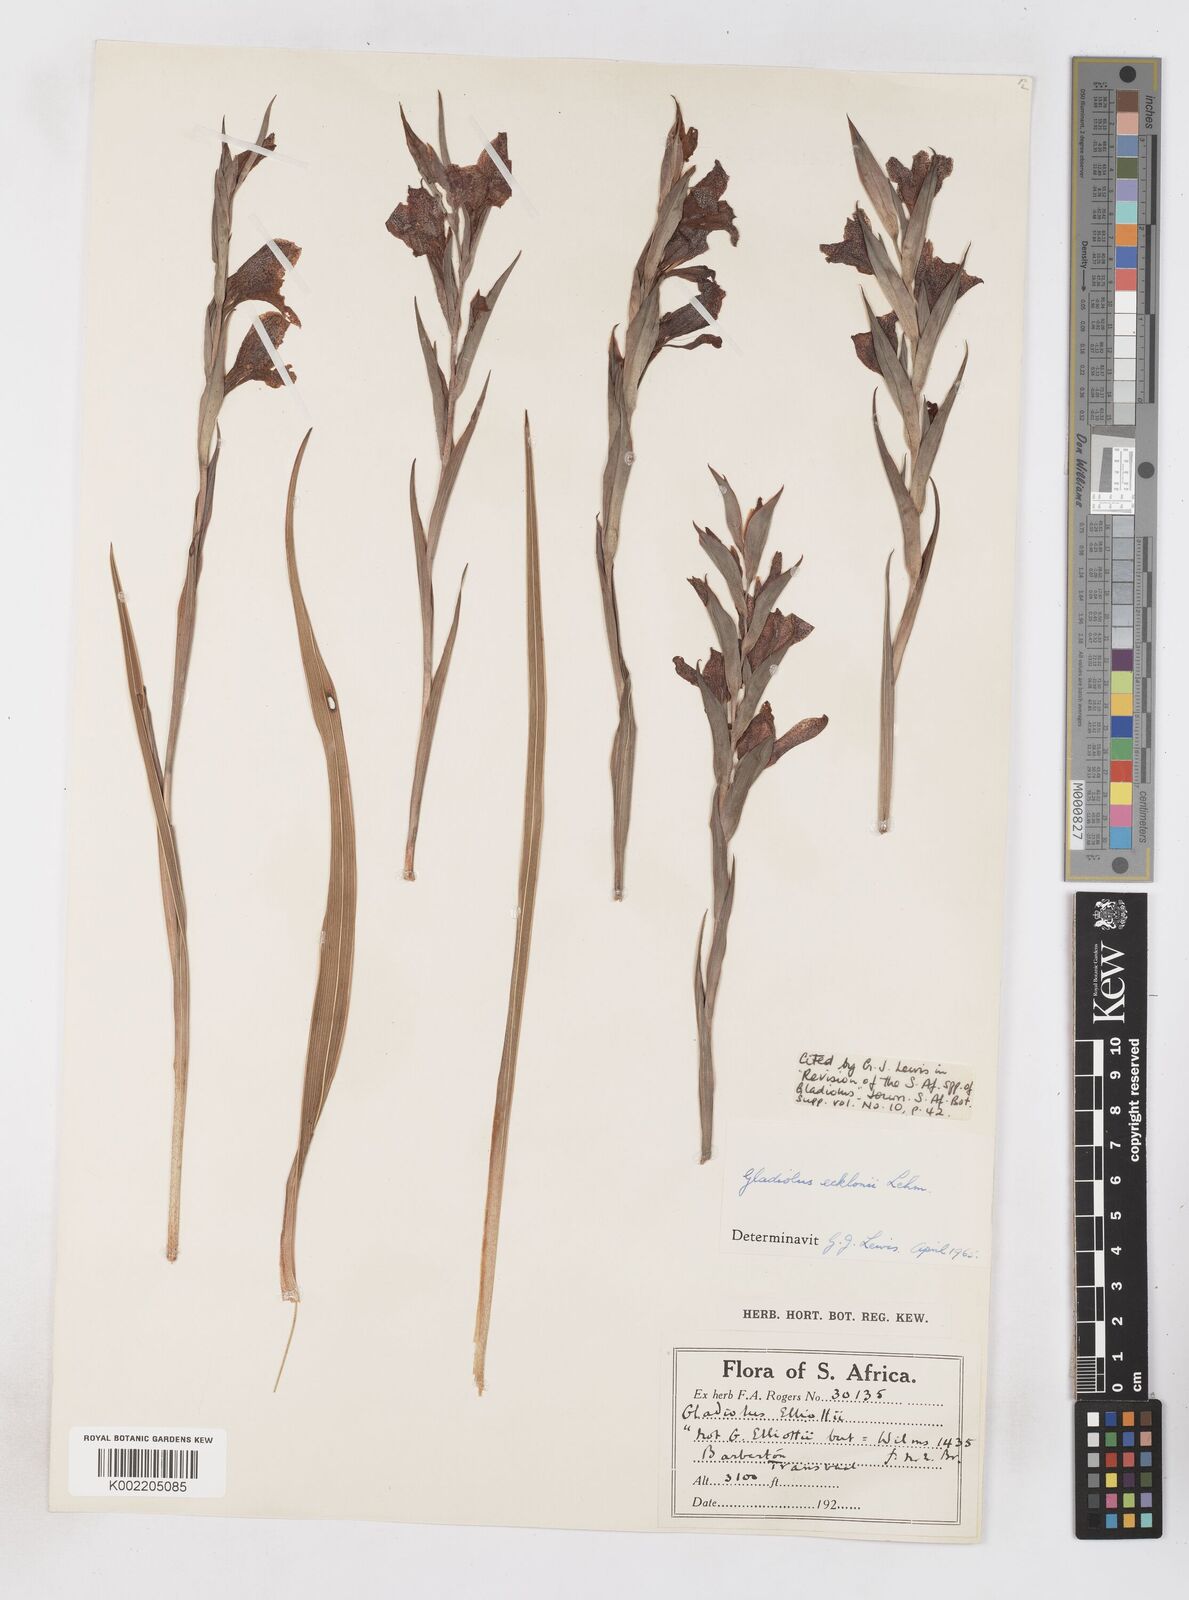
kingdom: Plantae
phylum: Tracheophyta
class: Liliopsida
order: Asparagales
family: Iridaceae
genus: Gladiolus
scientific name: Gladiolus ecklonii
